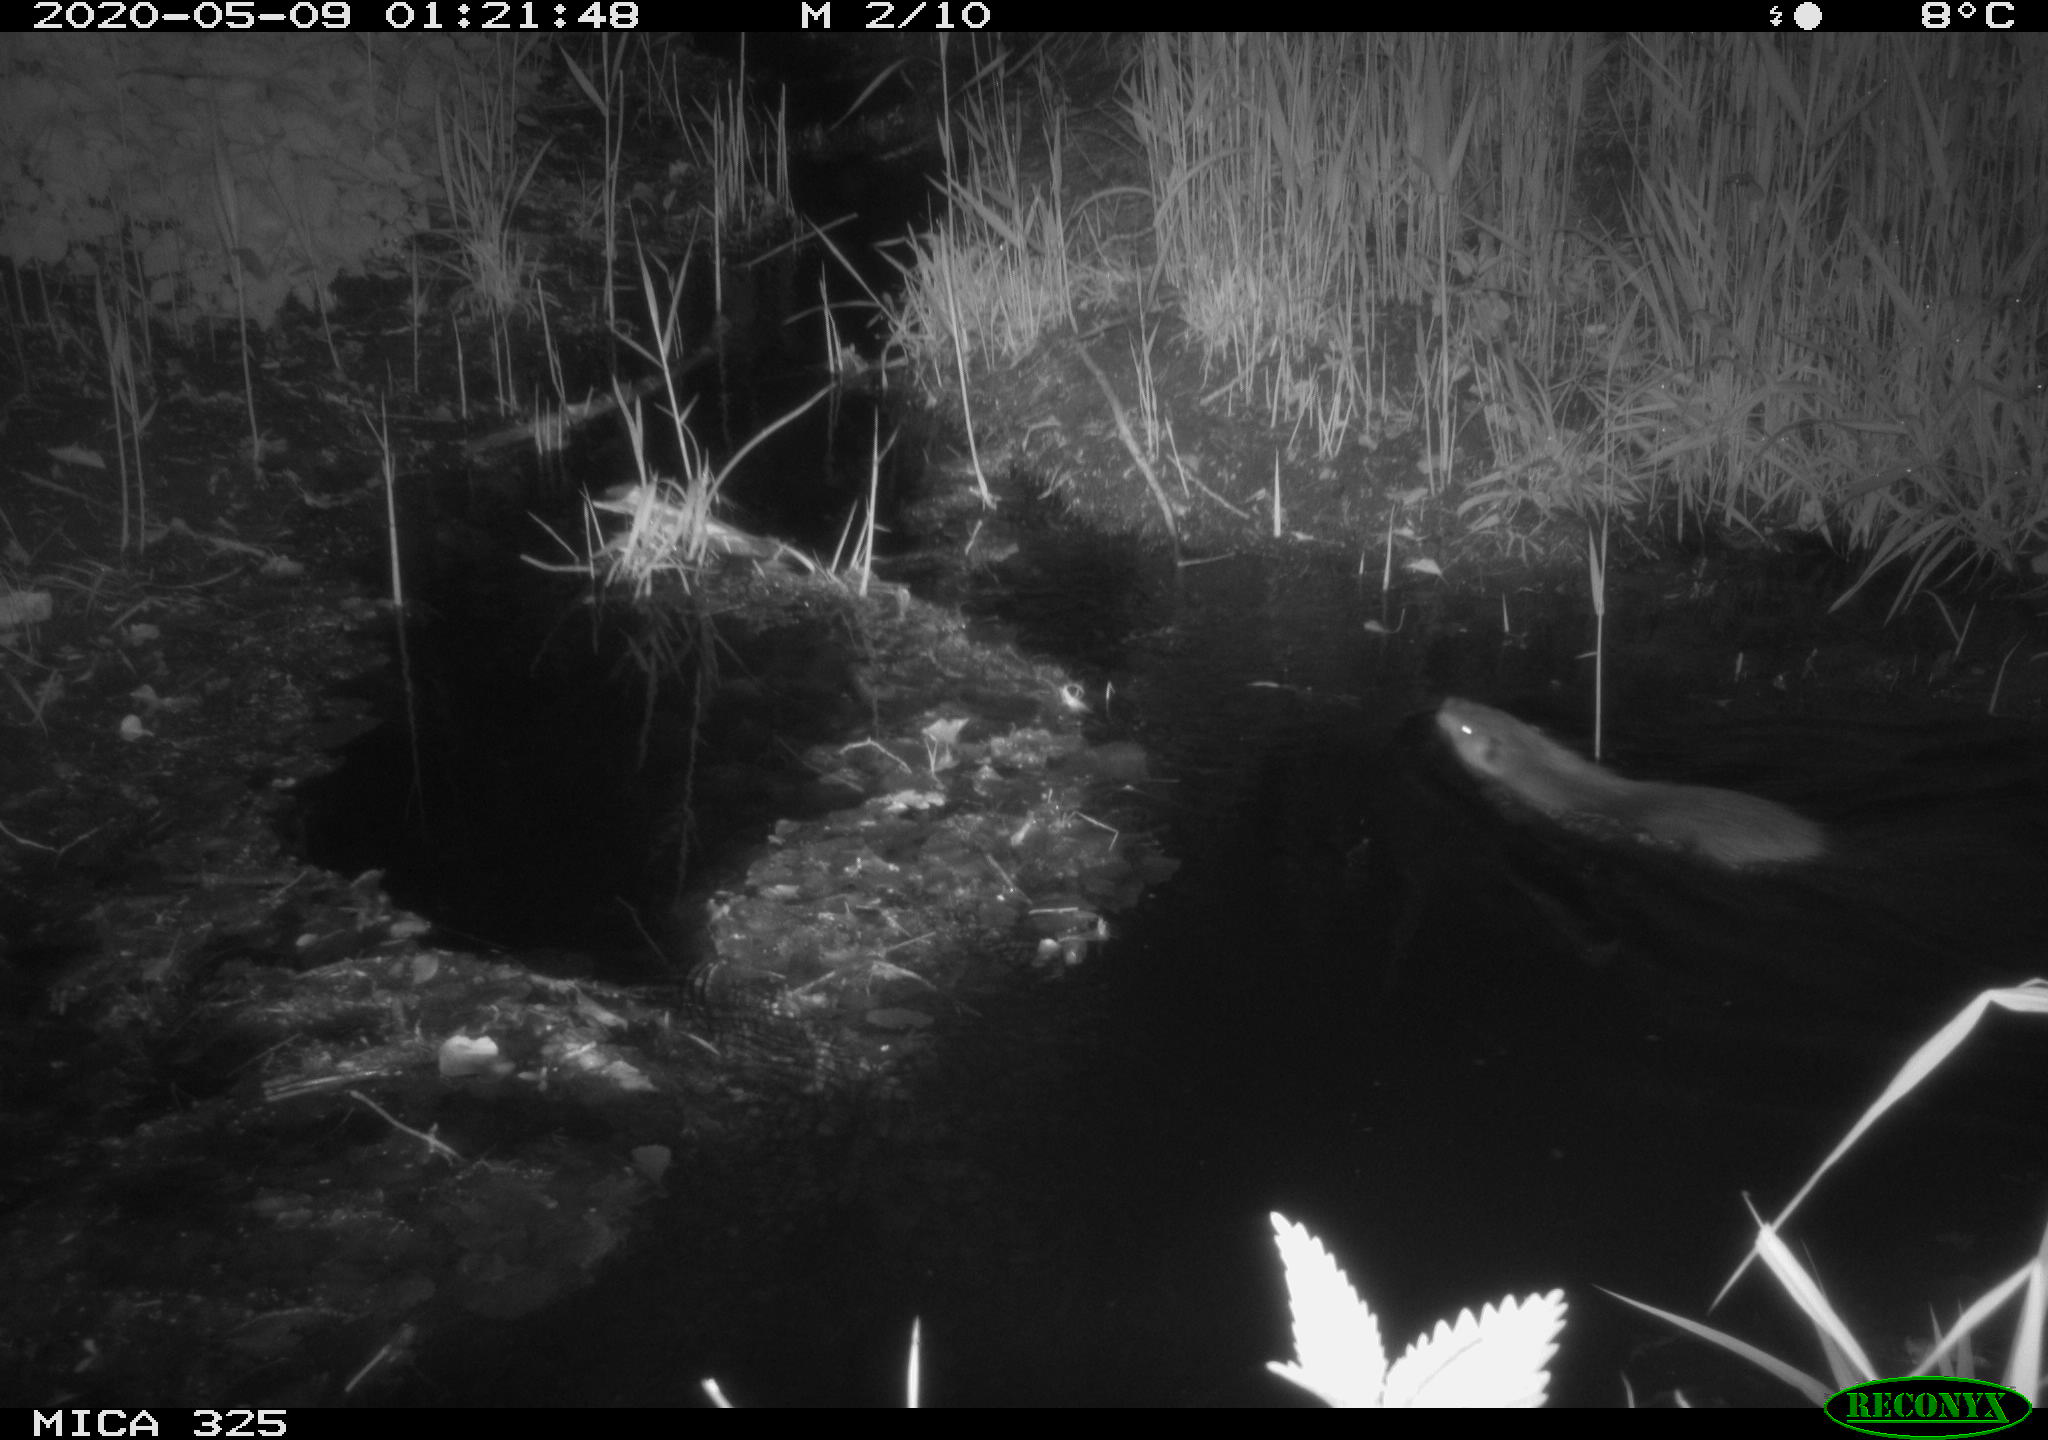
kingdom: Animalia
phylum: Chordata
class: Mammalia
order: Rodentia
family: Myocastoridae
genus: Myocastor
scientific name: Myocastor coypus
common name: Coypu
